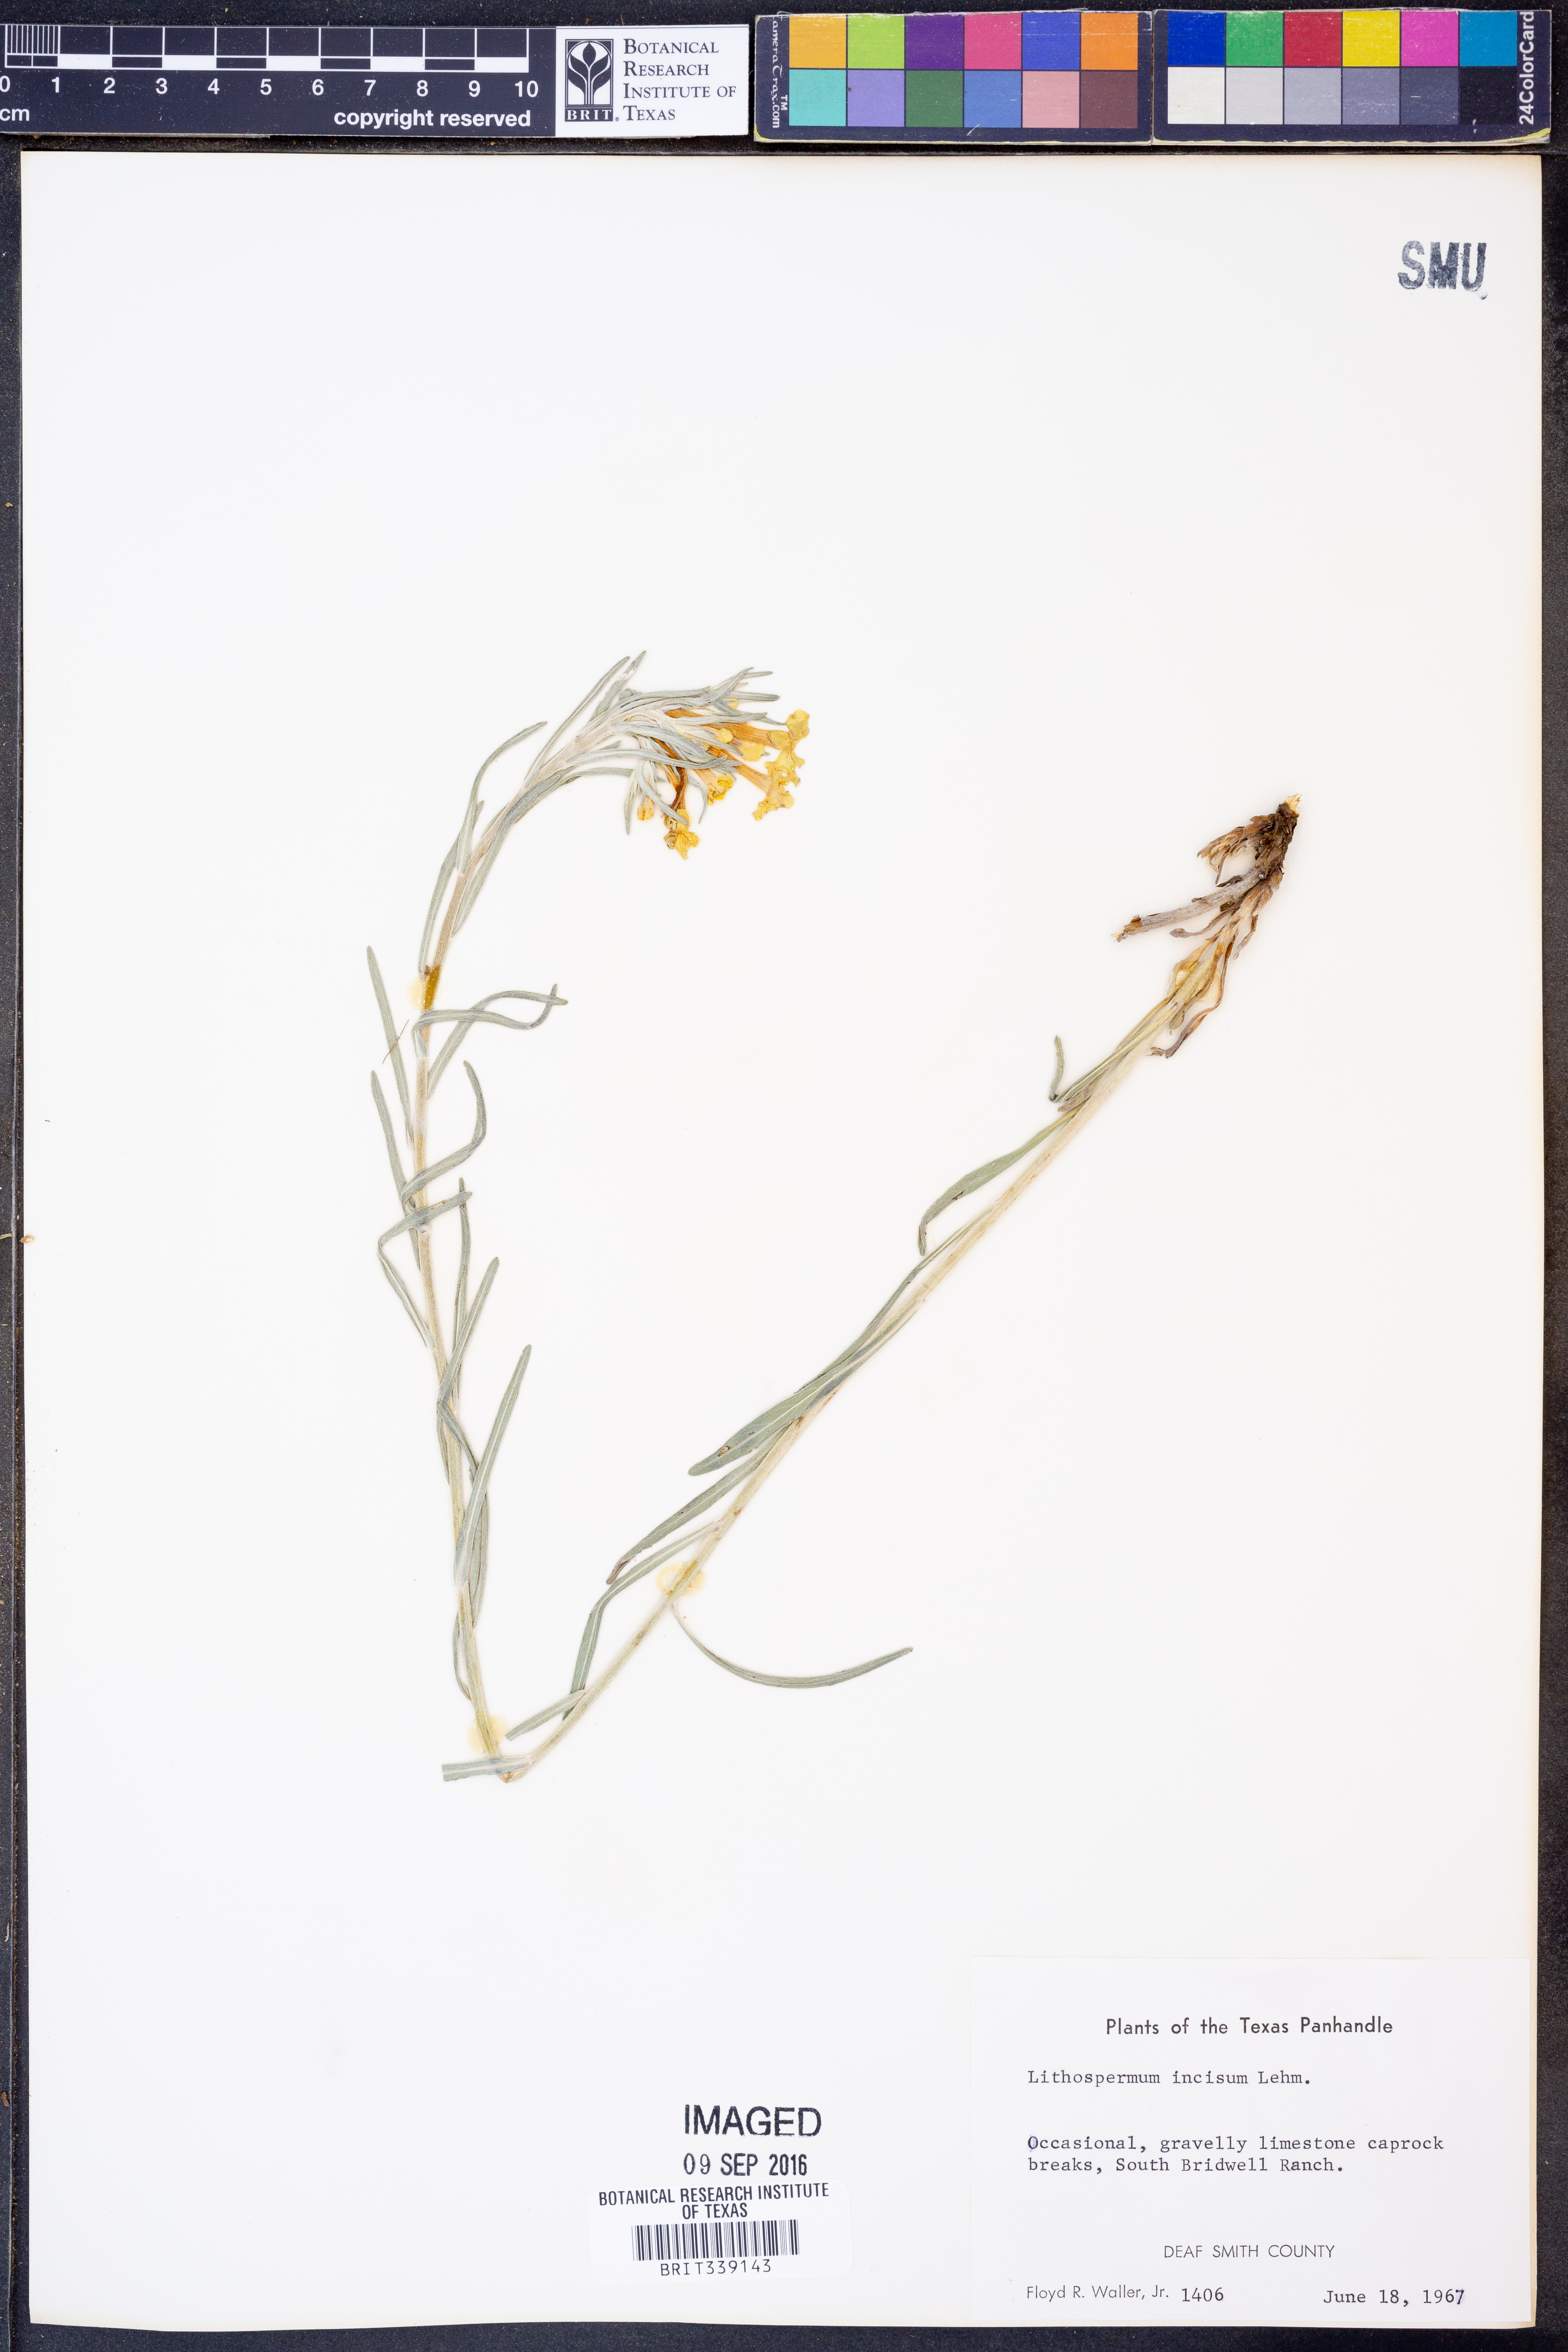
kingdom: Plantae
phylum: Tracheophyta
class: Magnoliopsida
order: Boraginales
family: Boraginaceae
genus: Lithospermum
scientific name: Lithospermum incisum
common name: Fringed gromwell
